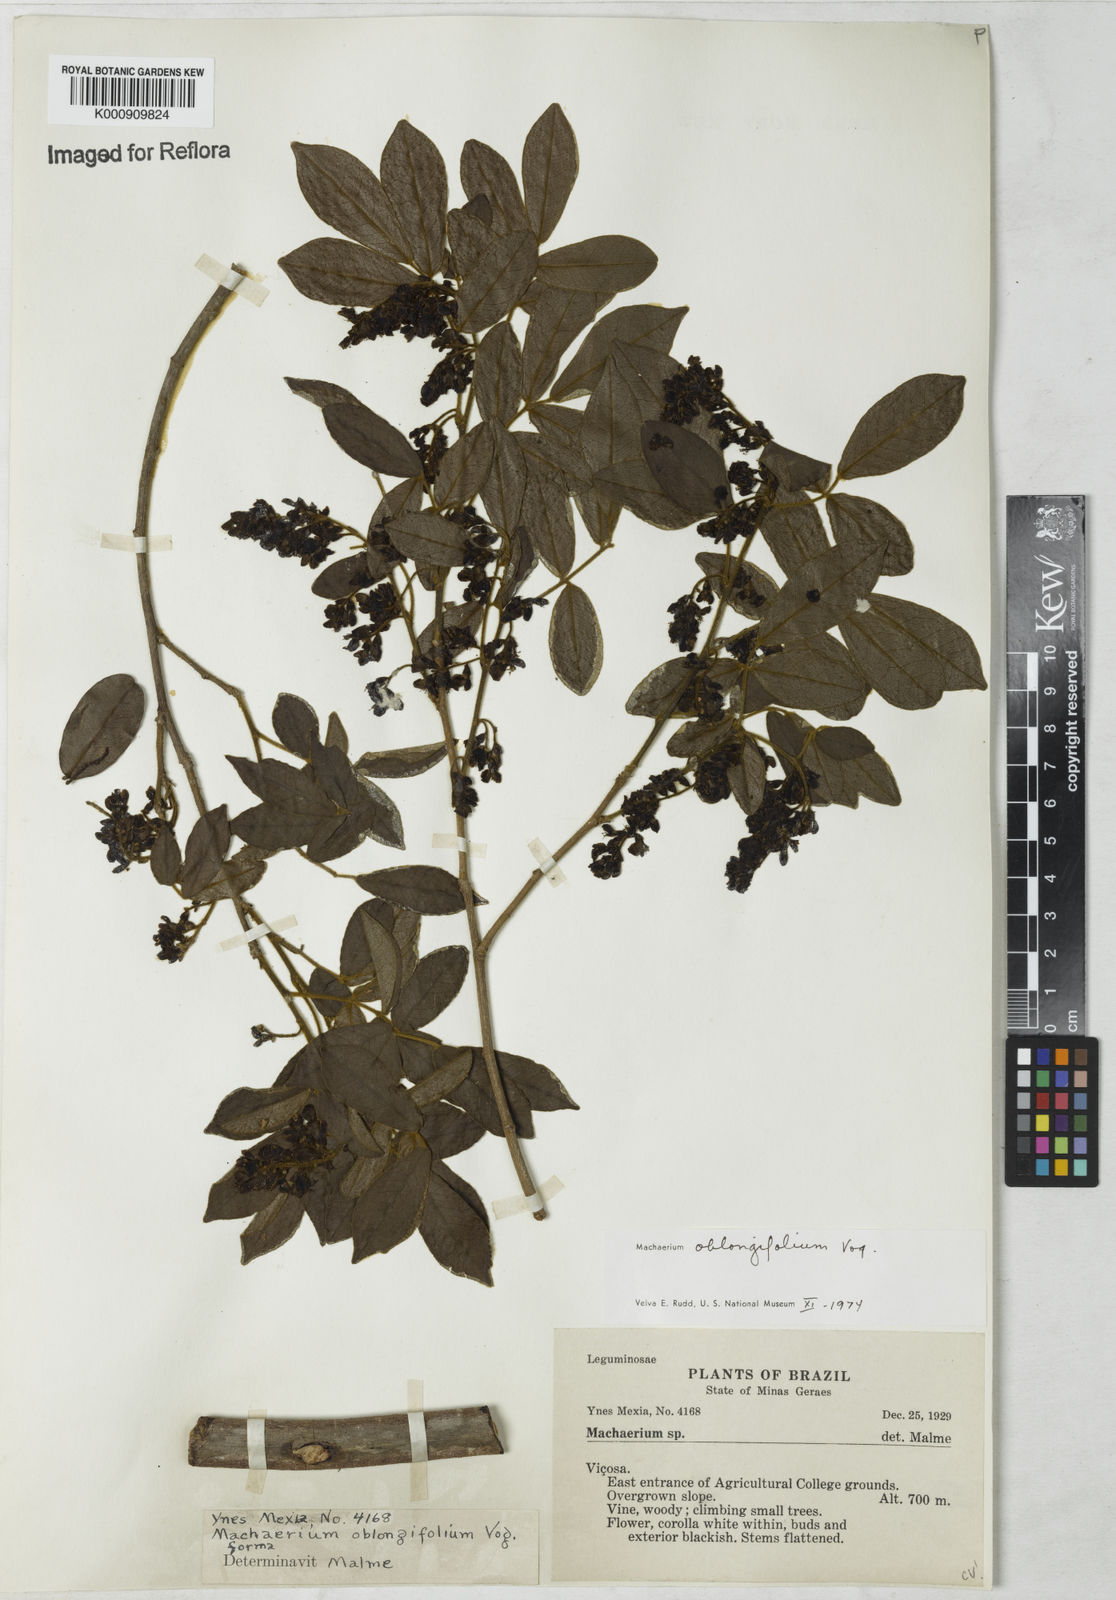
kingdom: Plantae
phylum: Tracheophyta
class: Magnoliopsida
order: Fabales
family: Fabaceae
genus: Machaerium
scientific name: Machaerium oblongifolium
